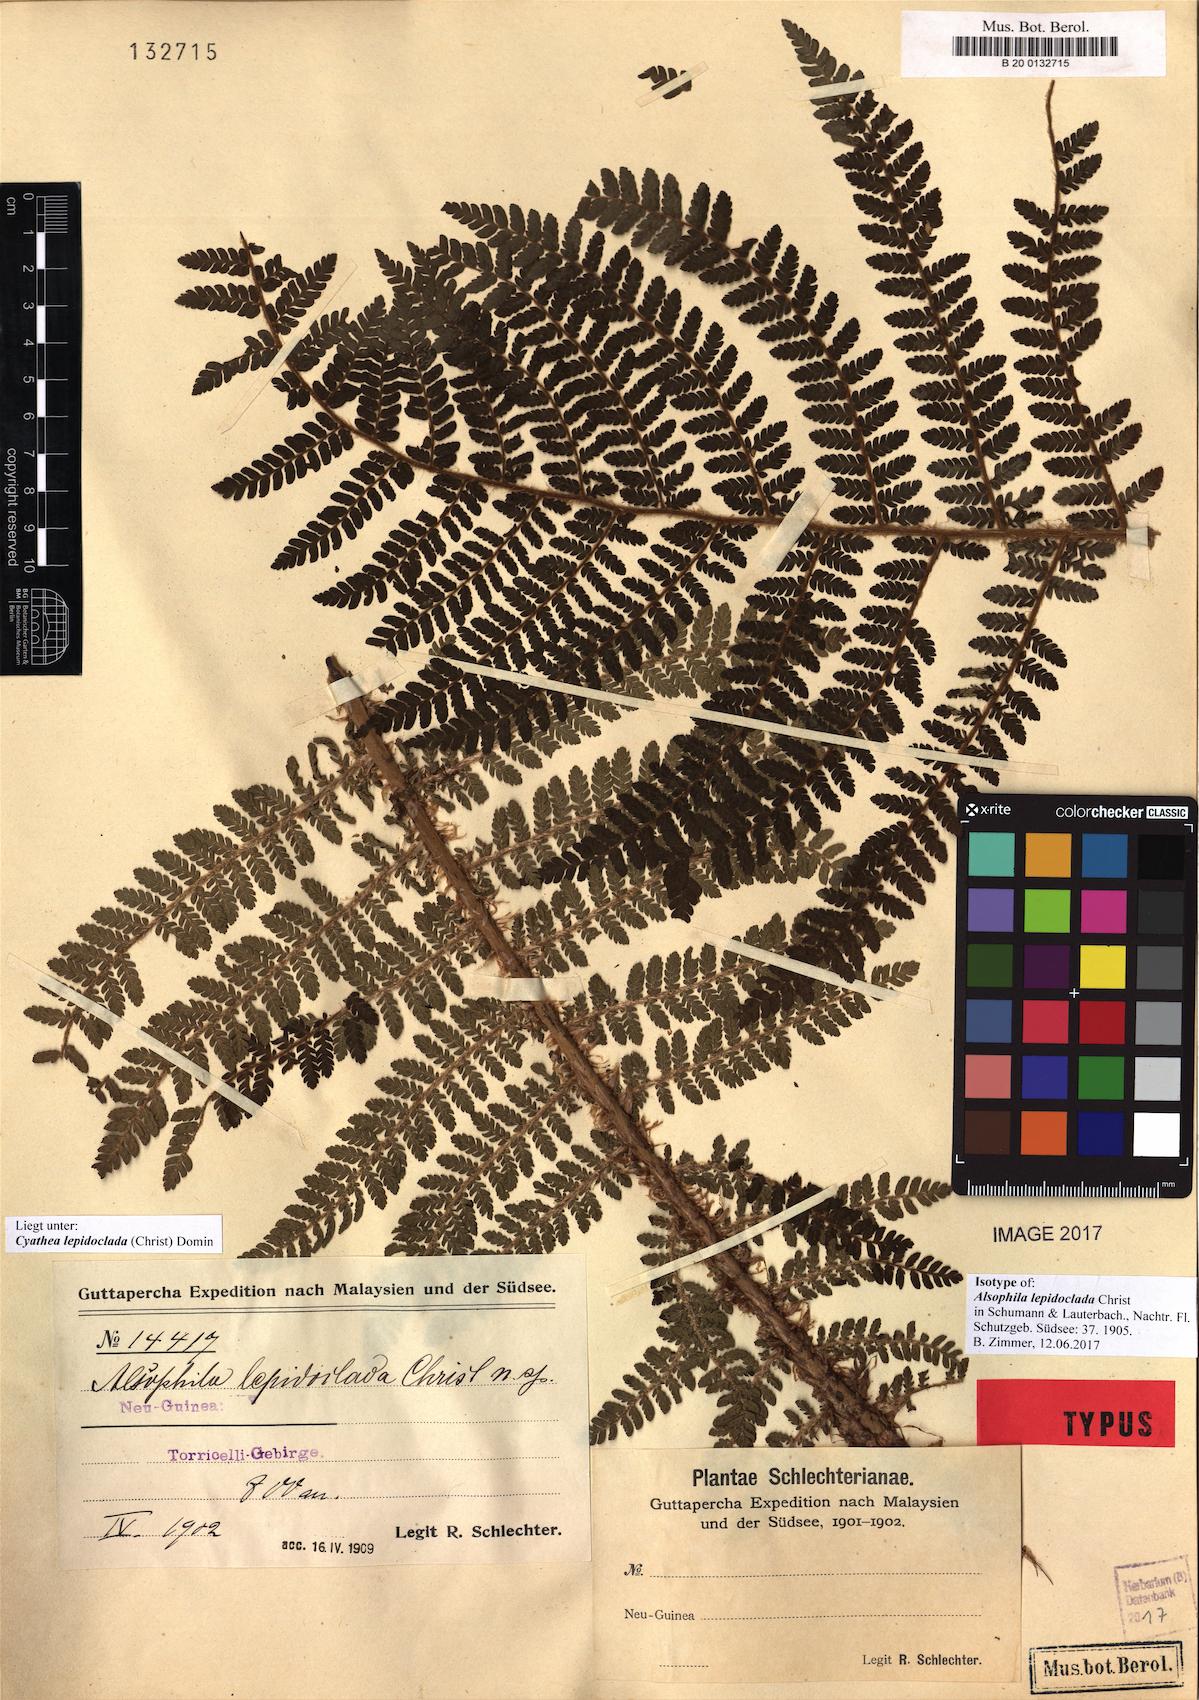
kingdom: Plantae
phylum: Tracheophyta
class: Polypodiopsida
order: Cyatheales
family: Cyatheaceae
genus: Alsophila
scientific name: Alsophila lepidoclada
